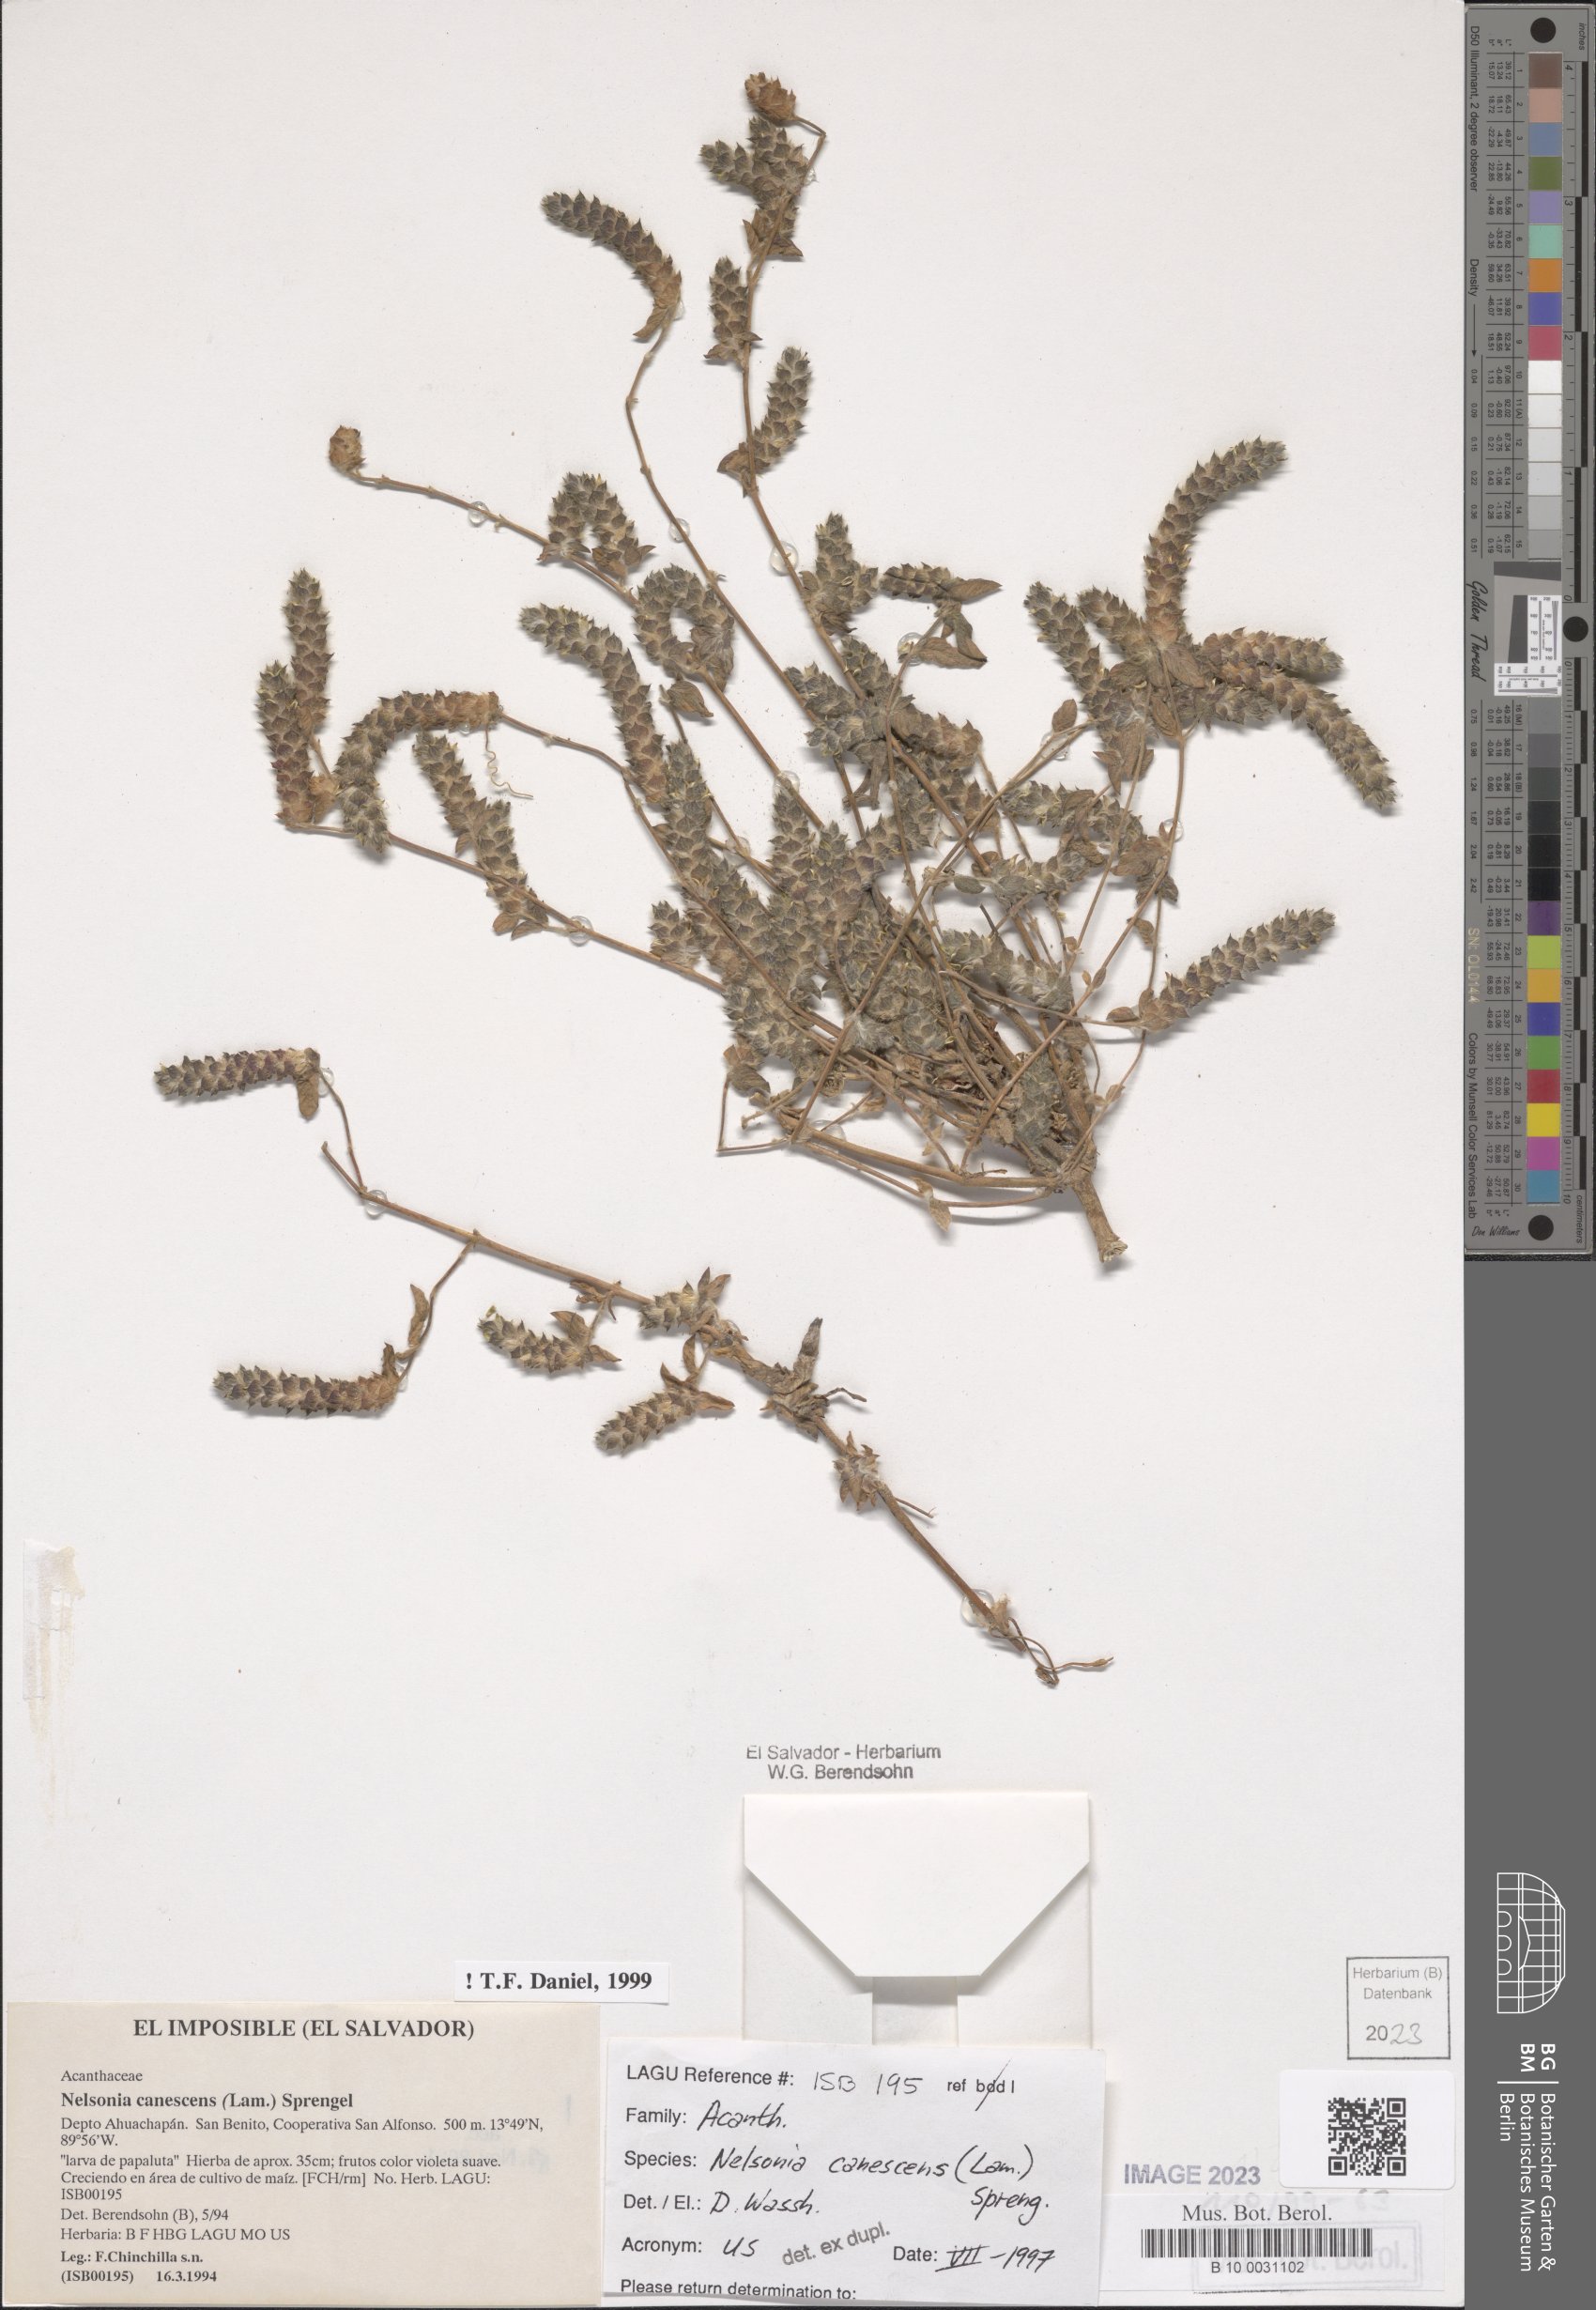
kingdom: Plantae
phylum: Tracheophyta
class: Magnoliopsida
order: Lamiales
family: Acanthaceae
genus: Nelsonia
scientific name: Nelsonia canescens
